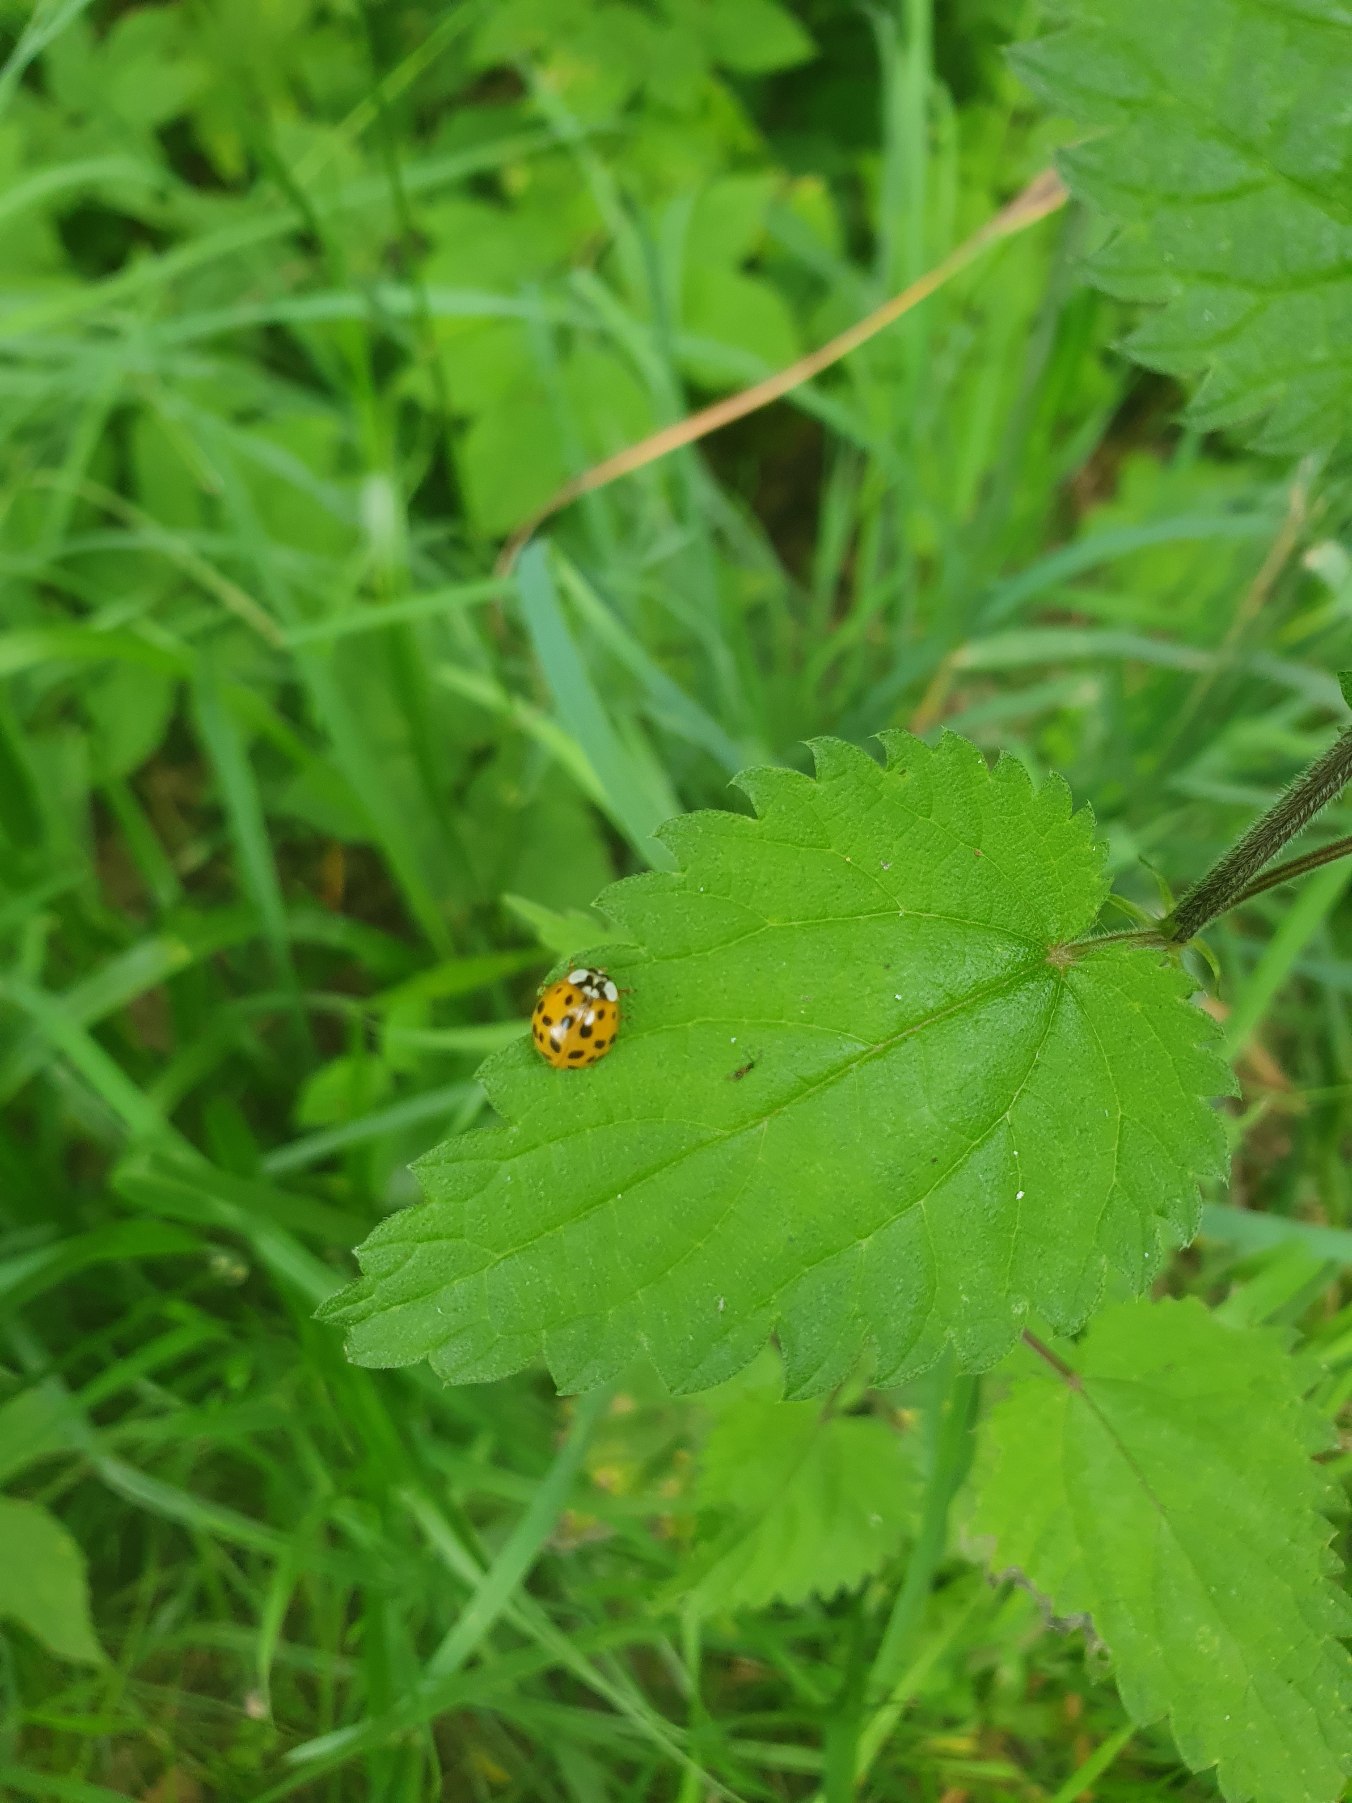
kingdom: Animalia
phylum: Arthropoda
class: Insecta
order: Coleoptera
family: Coccinellidae
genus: Harmonia
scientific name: Harmonia axyridis
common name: Harlekinmariehøne
